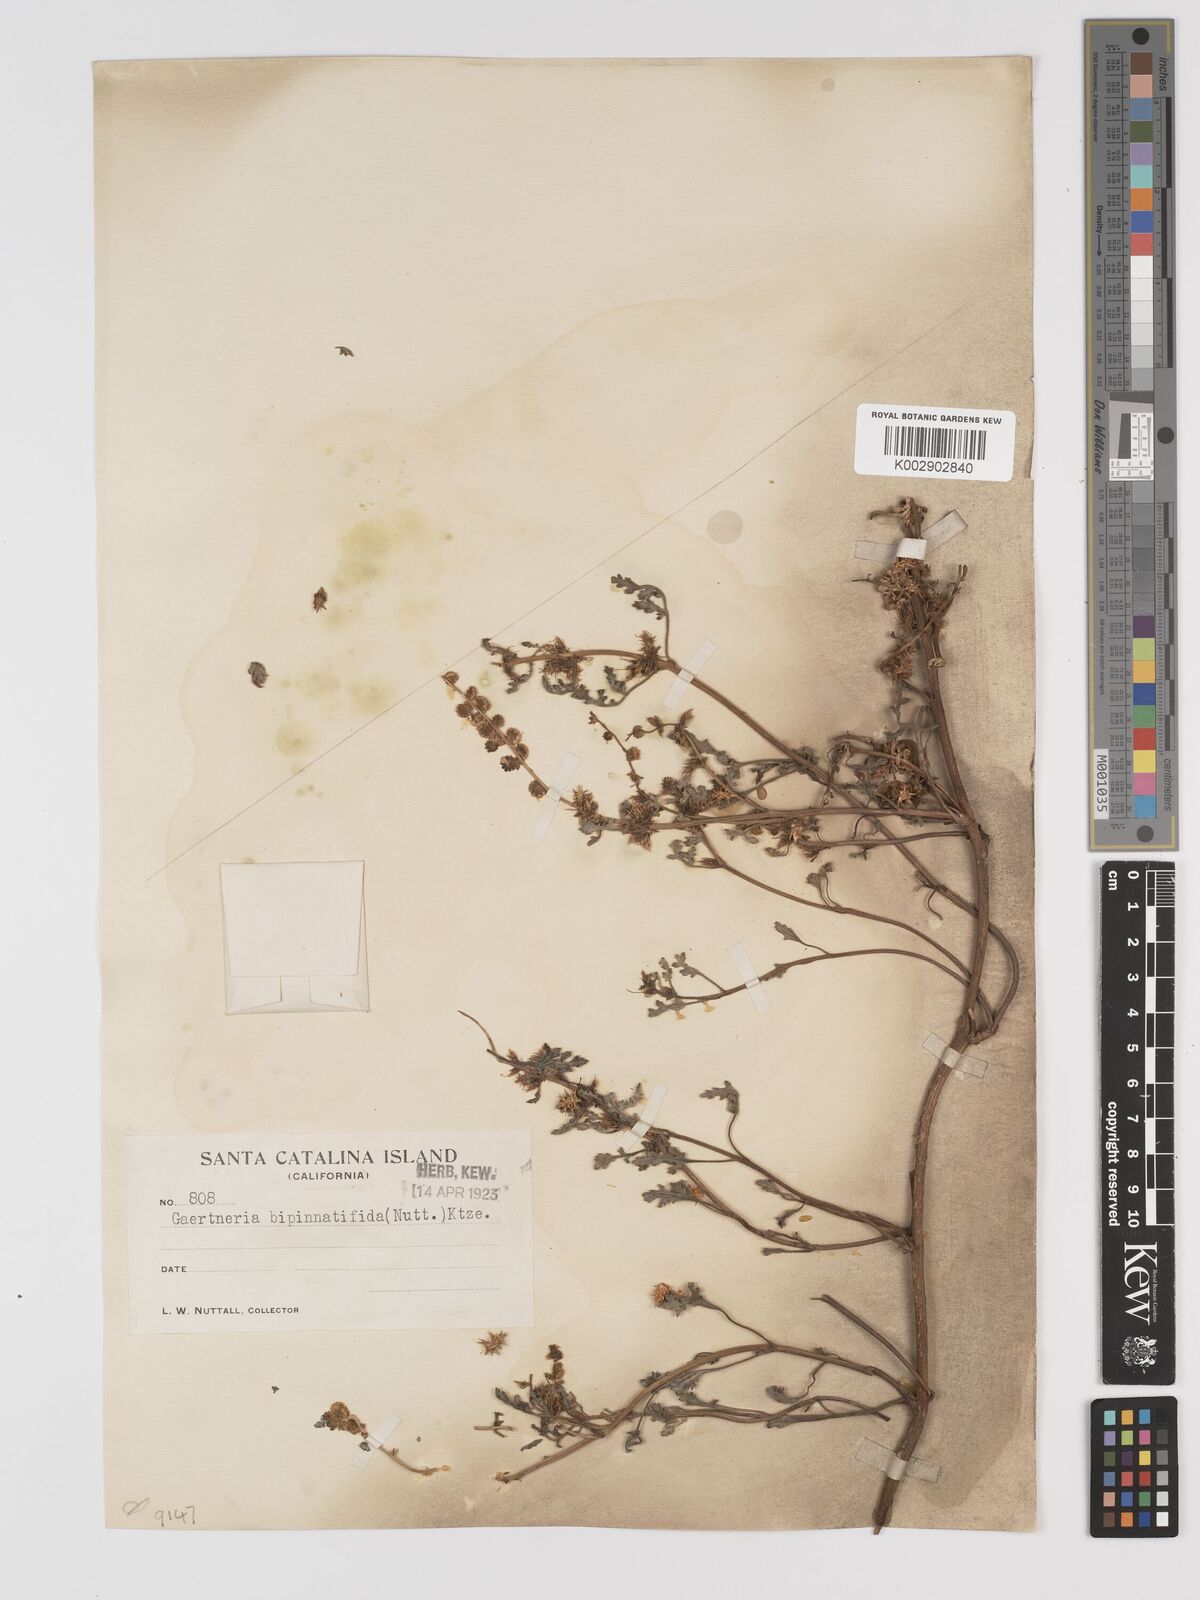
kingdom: Plantae
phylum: Tracheophyta
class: Magnoliopsida
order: Asterales
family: Asteraceae
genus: Ambrosia
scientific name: Ambrosia camphorata
